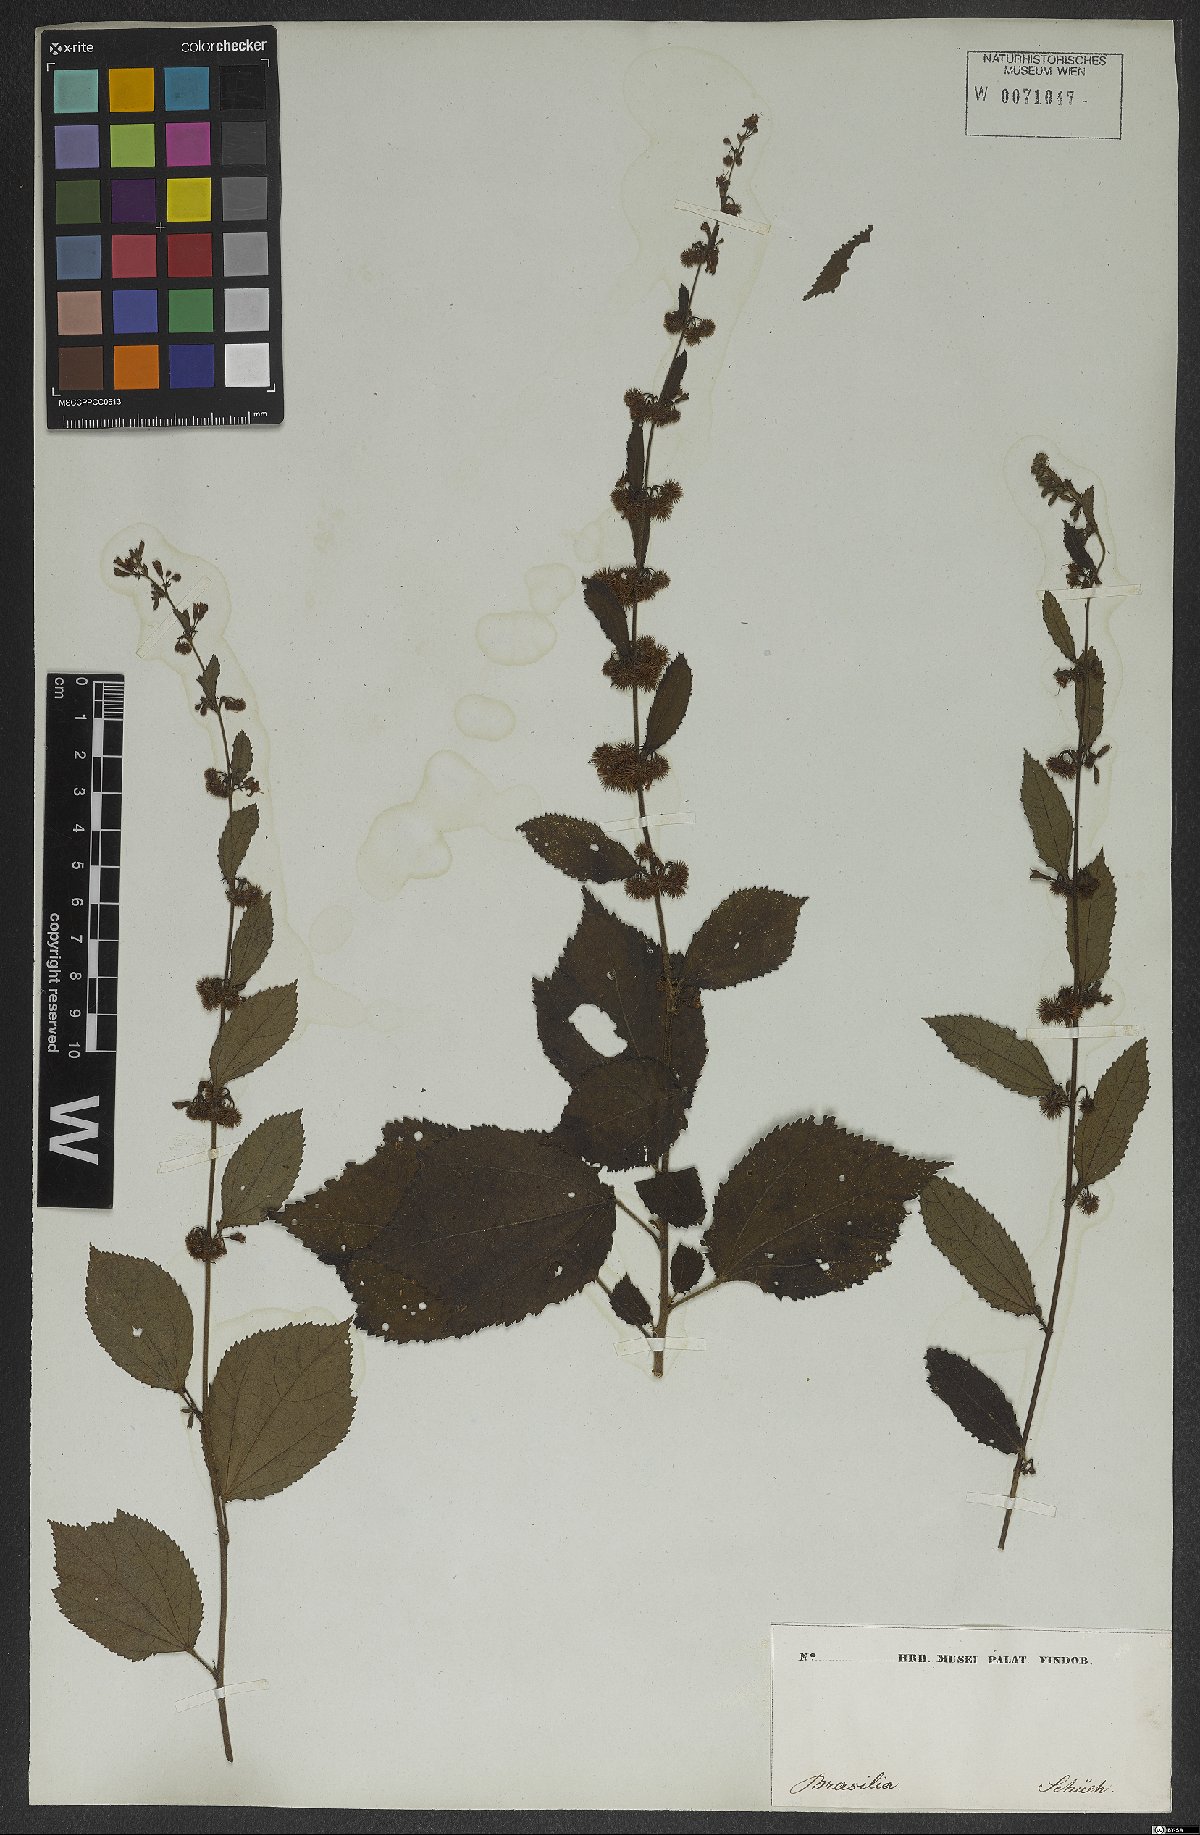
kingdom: Plantae
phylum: Tracheophyta
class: Magnoliopsida
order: Malvales
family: Malvaceae
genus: Triumfetta
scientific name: Triumfetta
